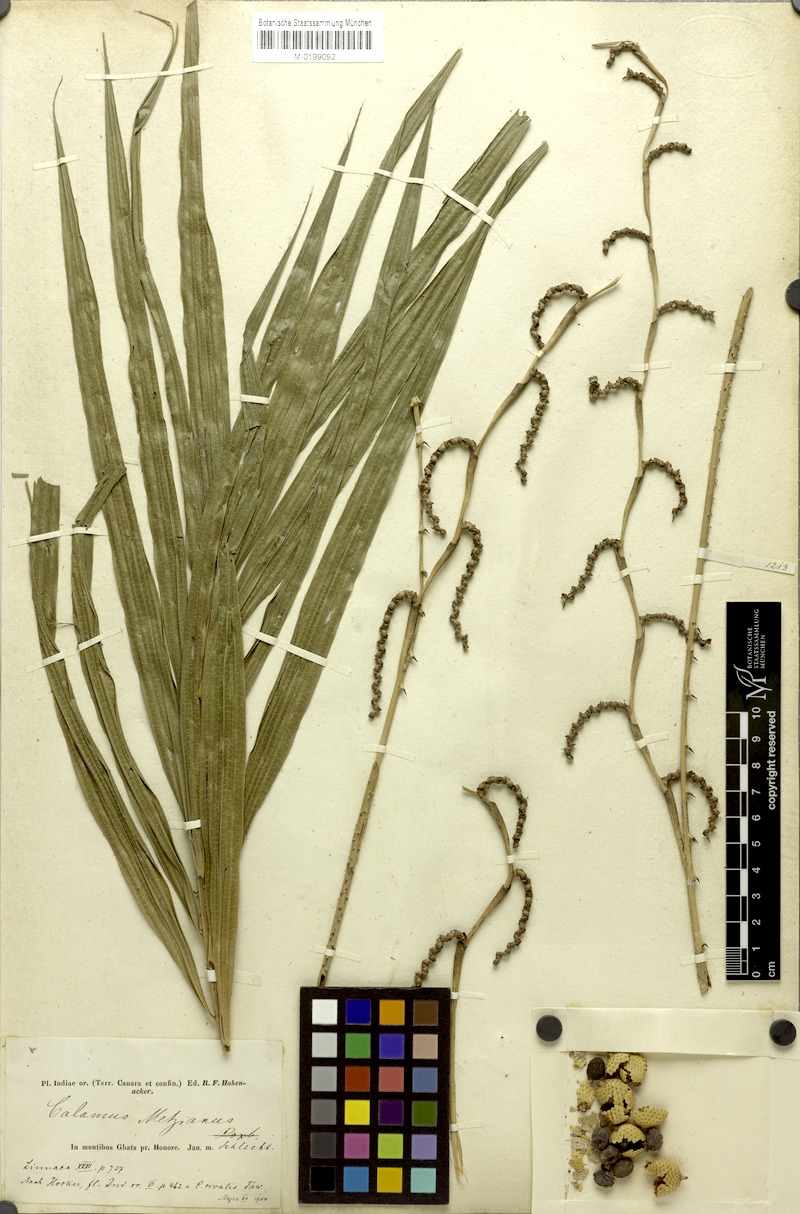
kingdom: Plantae
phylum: Tracheophyta
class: Liliopsida
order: Arecales
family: Arecaceae
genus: Calamus
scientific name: Calamus metzianus
